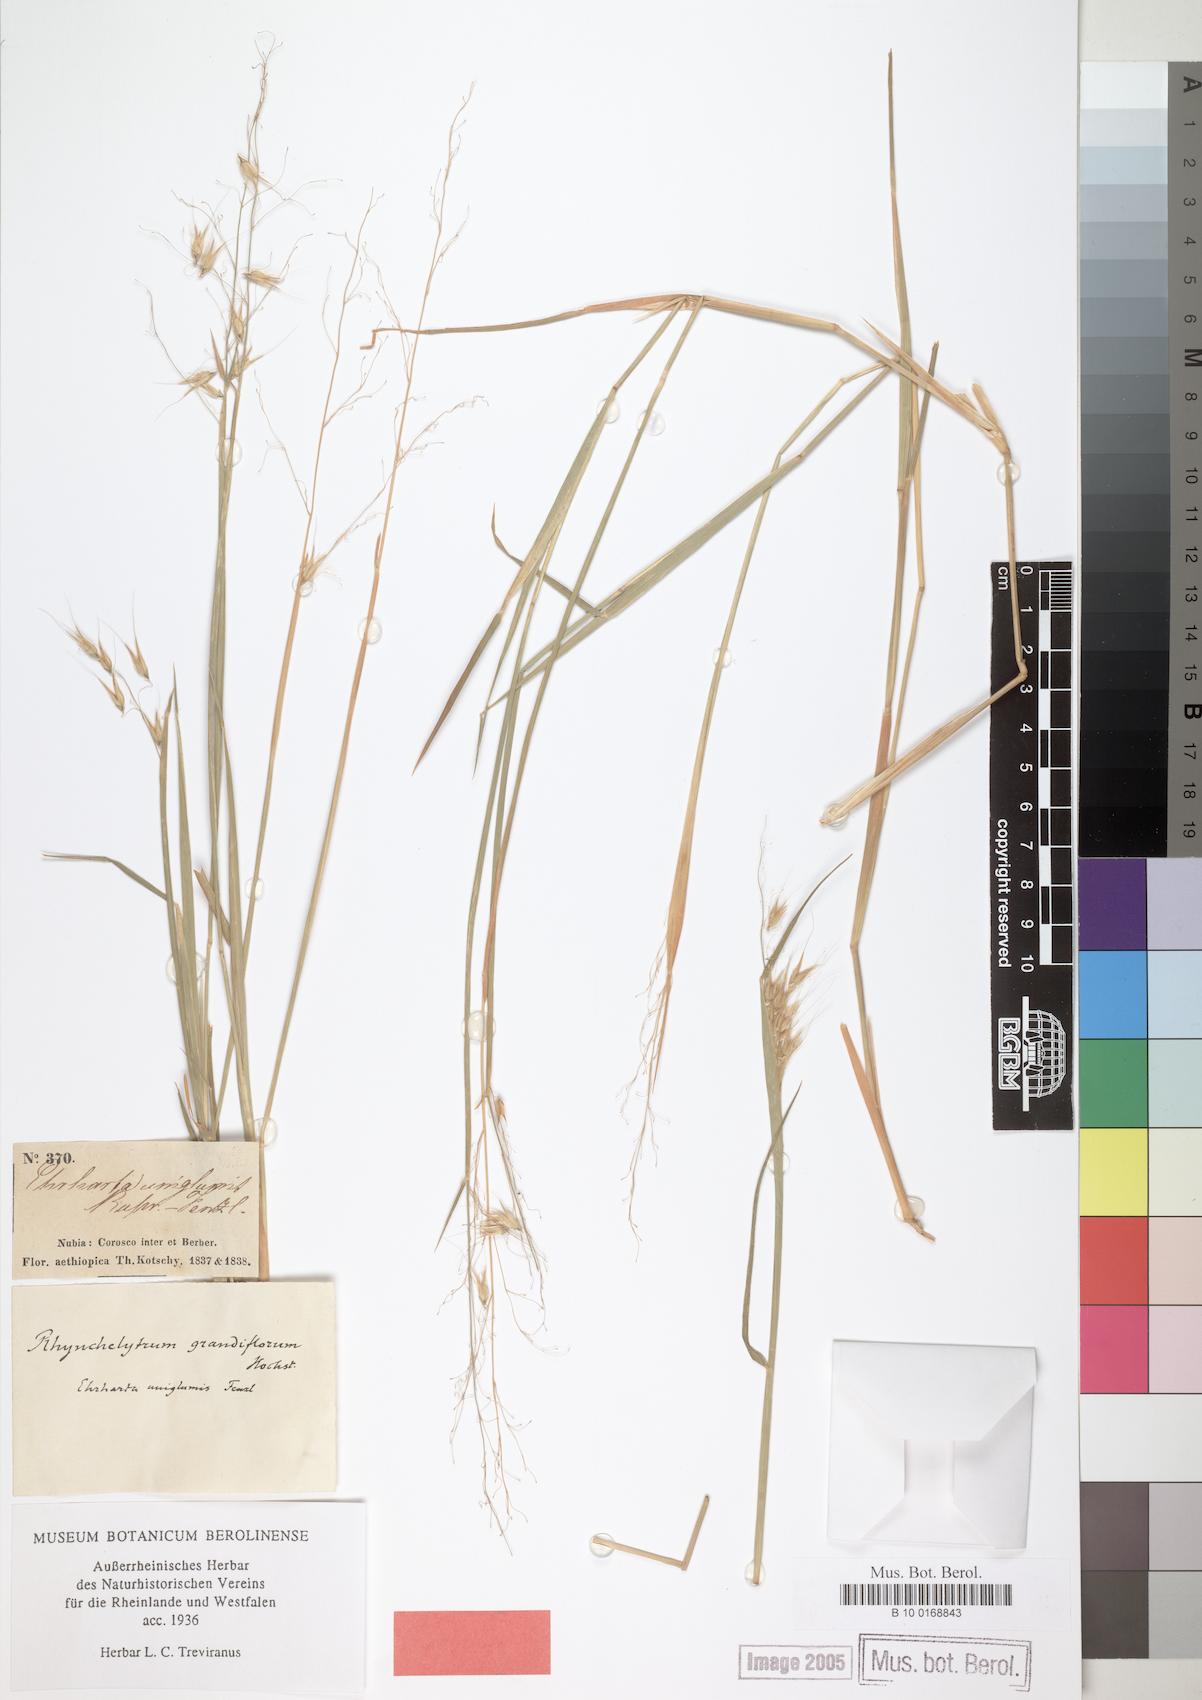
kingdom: Plantae
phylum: Tracheophyta
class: Liliopsida
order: Poales
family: Poaceae
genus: Melinis
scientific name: Melinis repens
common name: Rose natal grass
